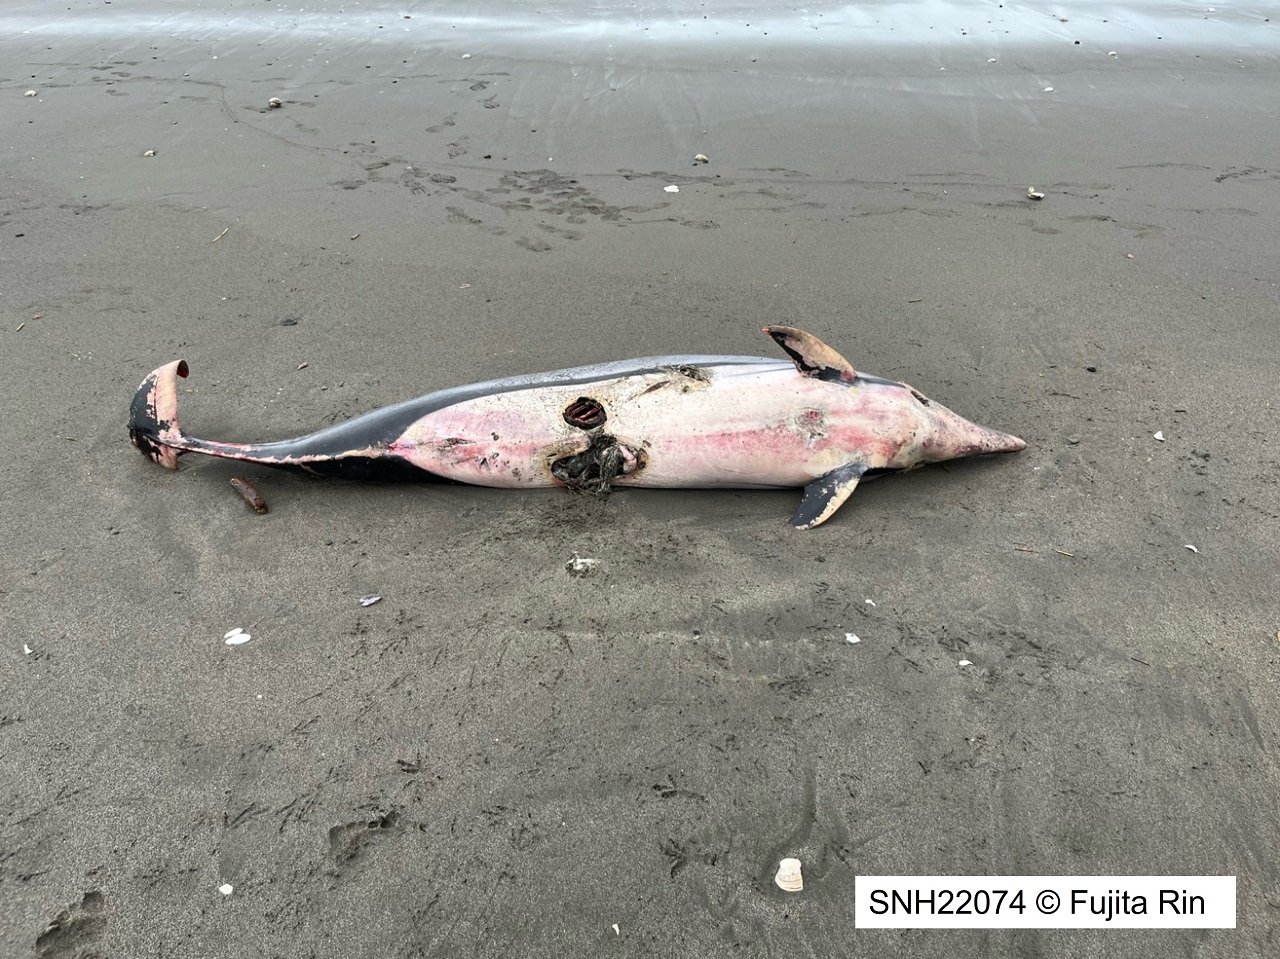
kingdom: Animalia
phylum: Chordata
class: Mammalia
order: Cetacea
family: Delphinidae
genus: Stenella
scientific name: Stenella coeruleoalba
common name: Striped dolphin
